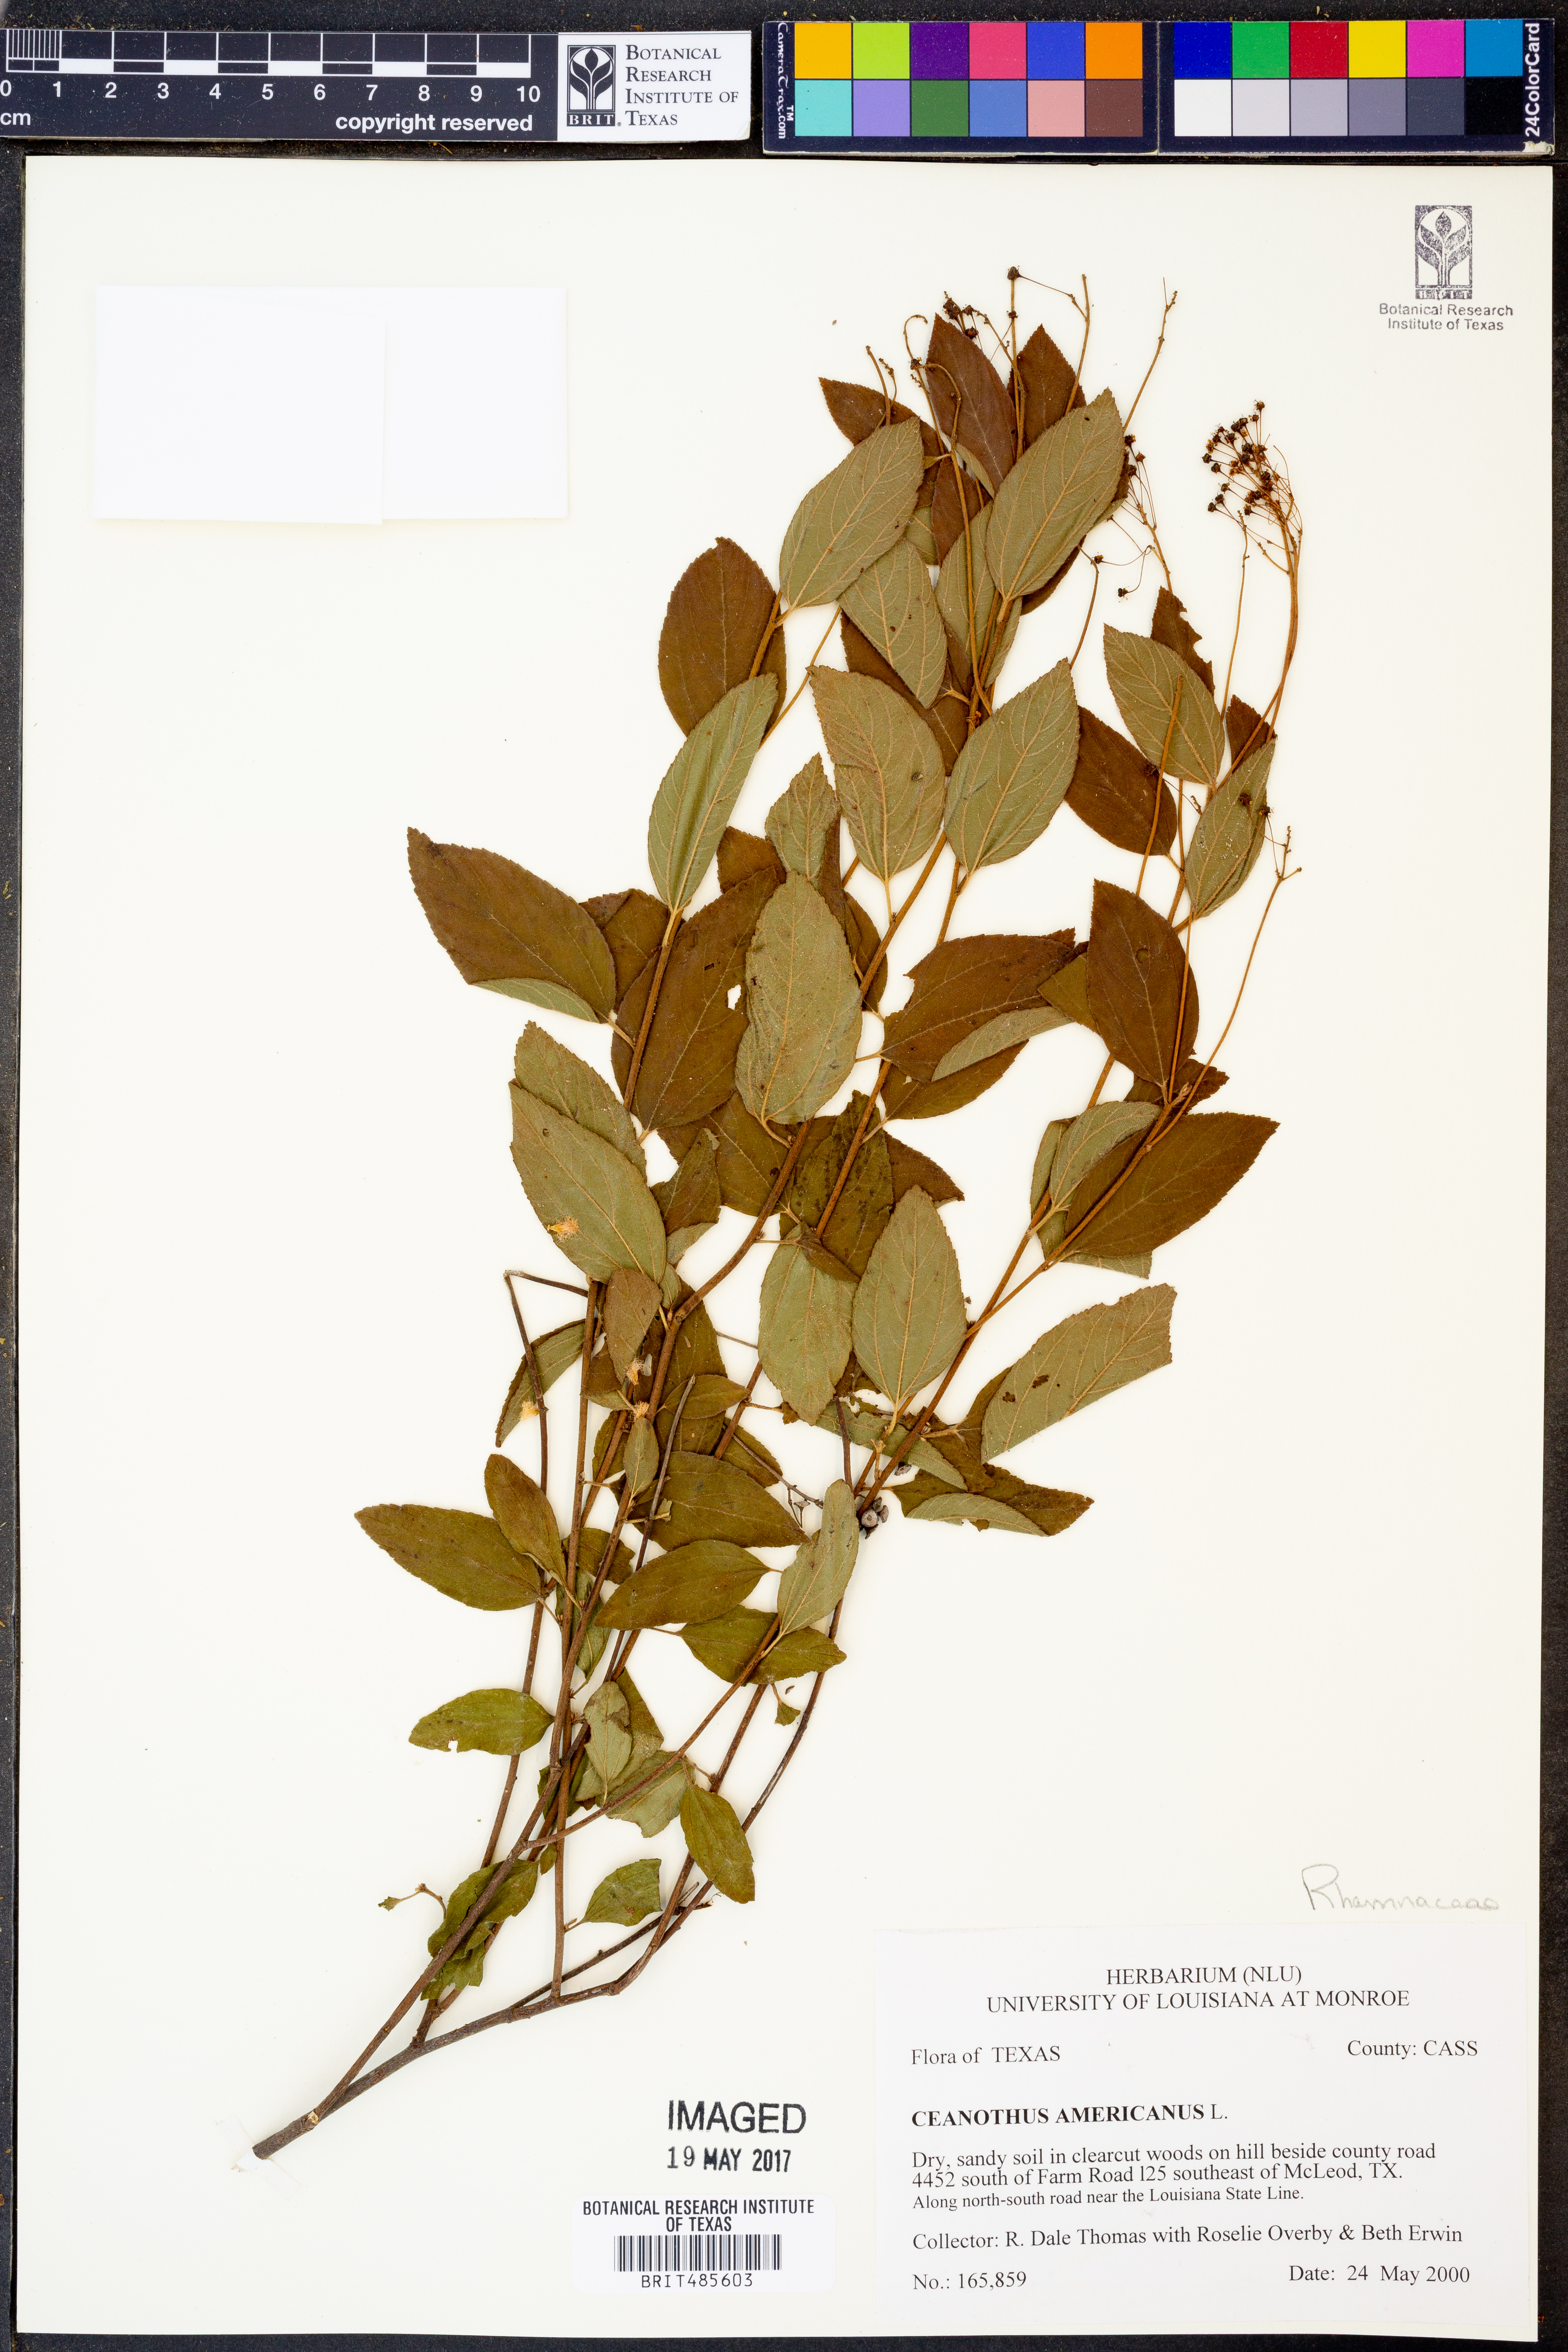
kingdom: Plantae
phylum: Tracheophyta
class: Magnoliopsida
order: Rosales
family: Rhamnaceae
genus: Ceanothus
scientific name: Ceanothus americanus
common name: Redroot
